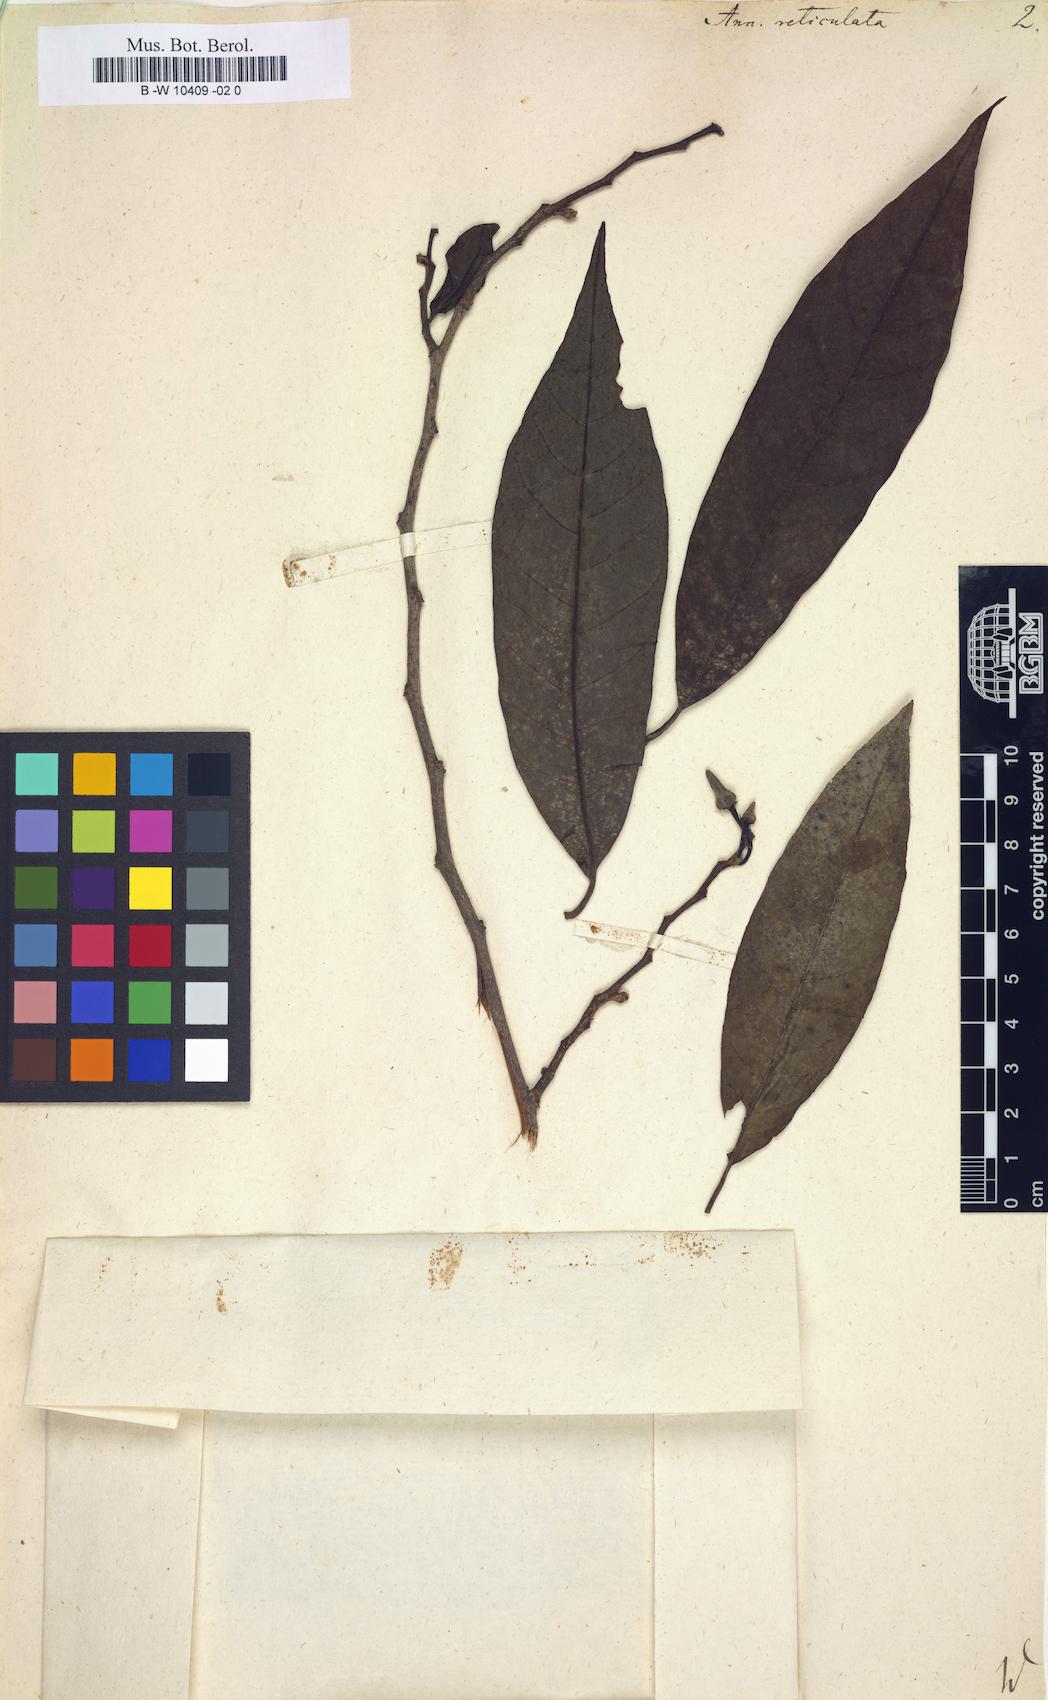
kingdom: Plantae
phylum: Tracheophyta
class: Magnoliopsida
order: Magnoliales
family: Annonaceae
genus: Annona
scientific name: Annona reticulata
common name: Custard apple
